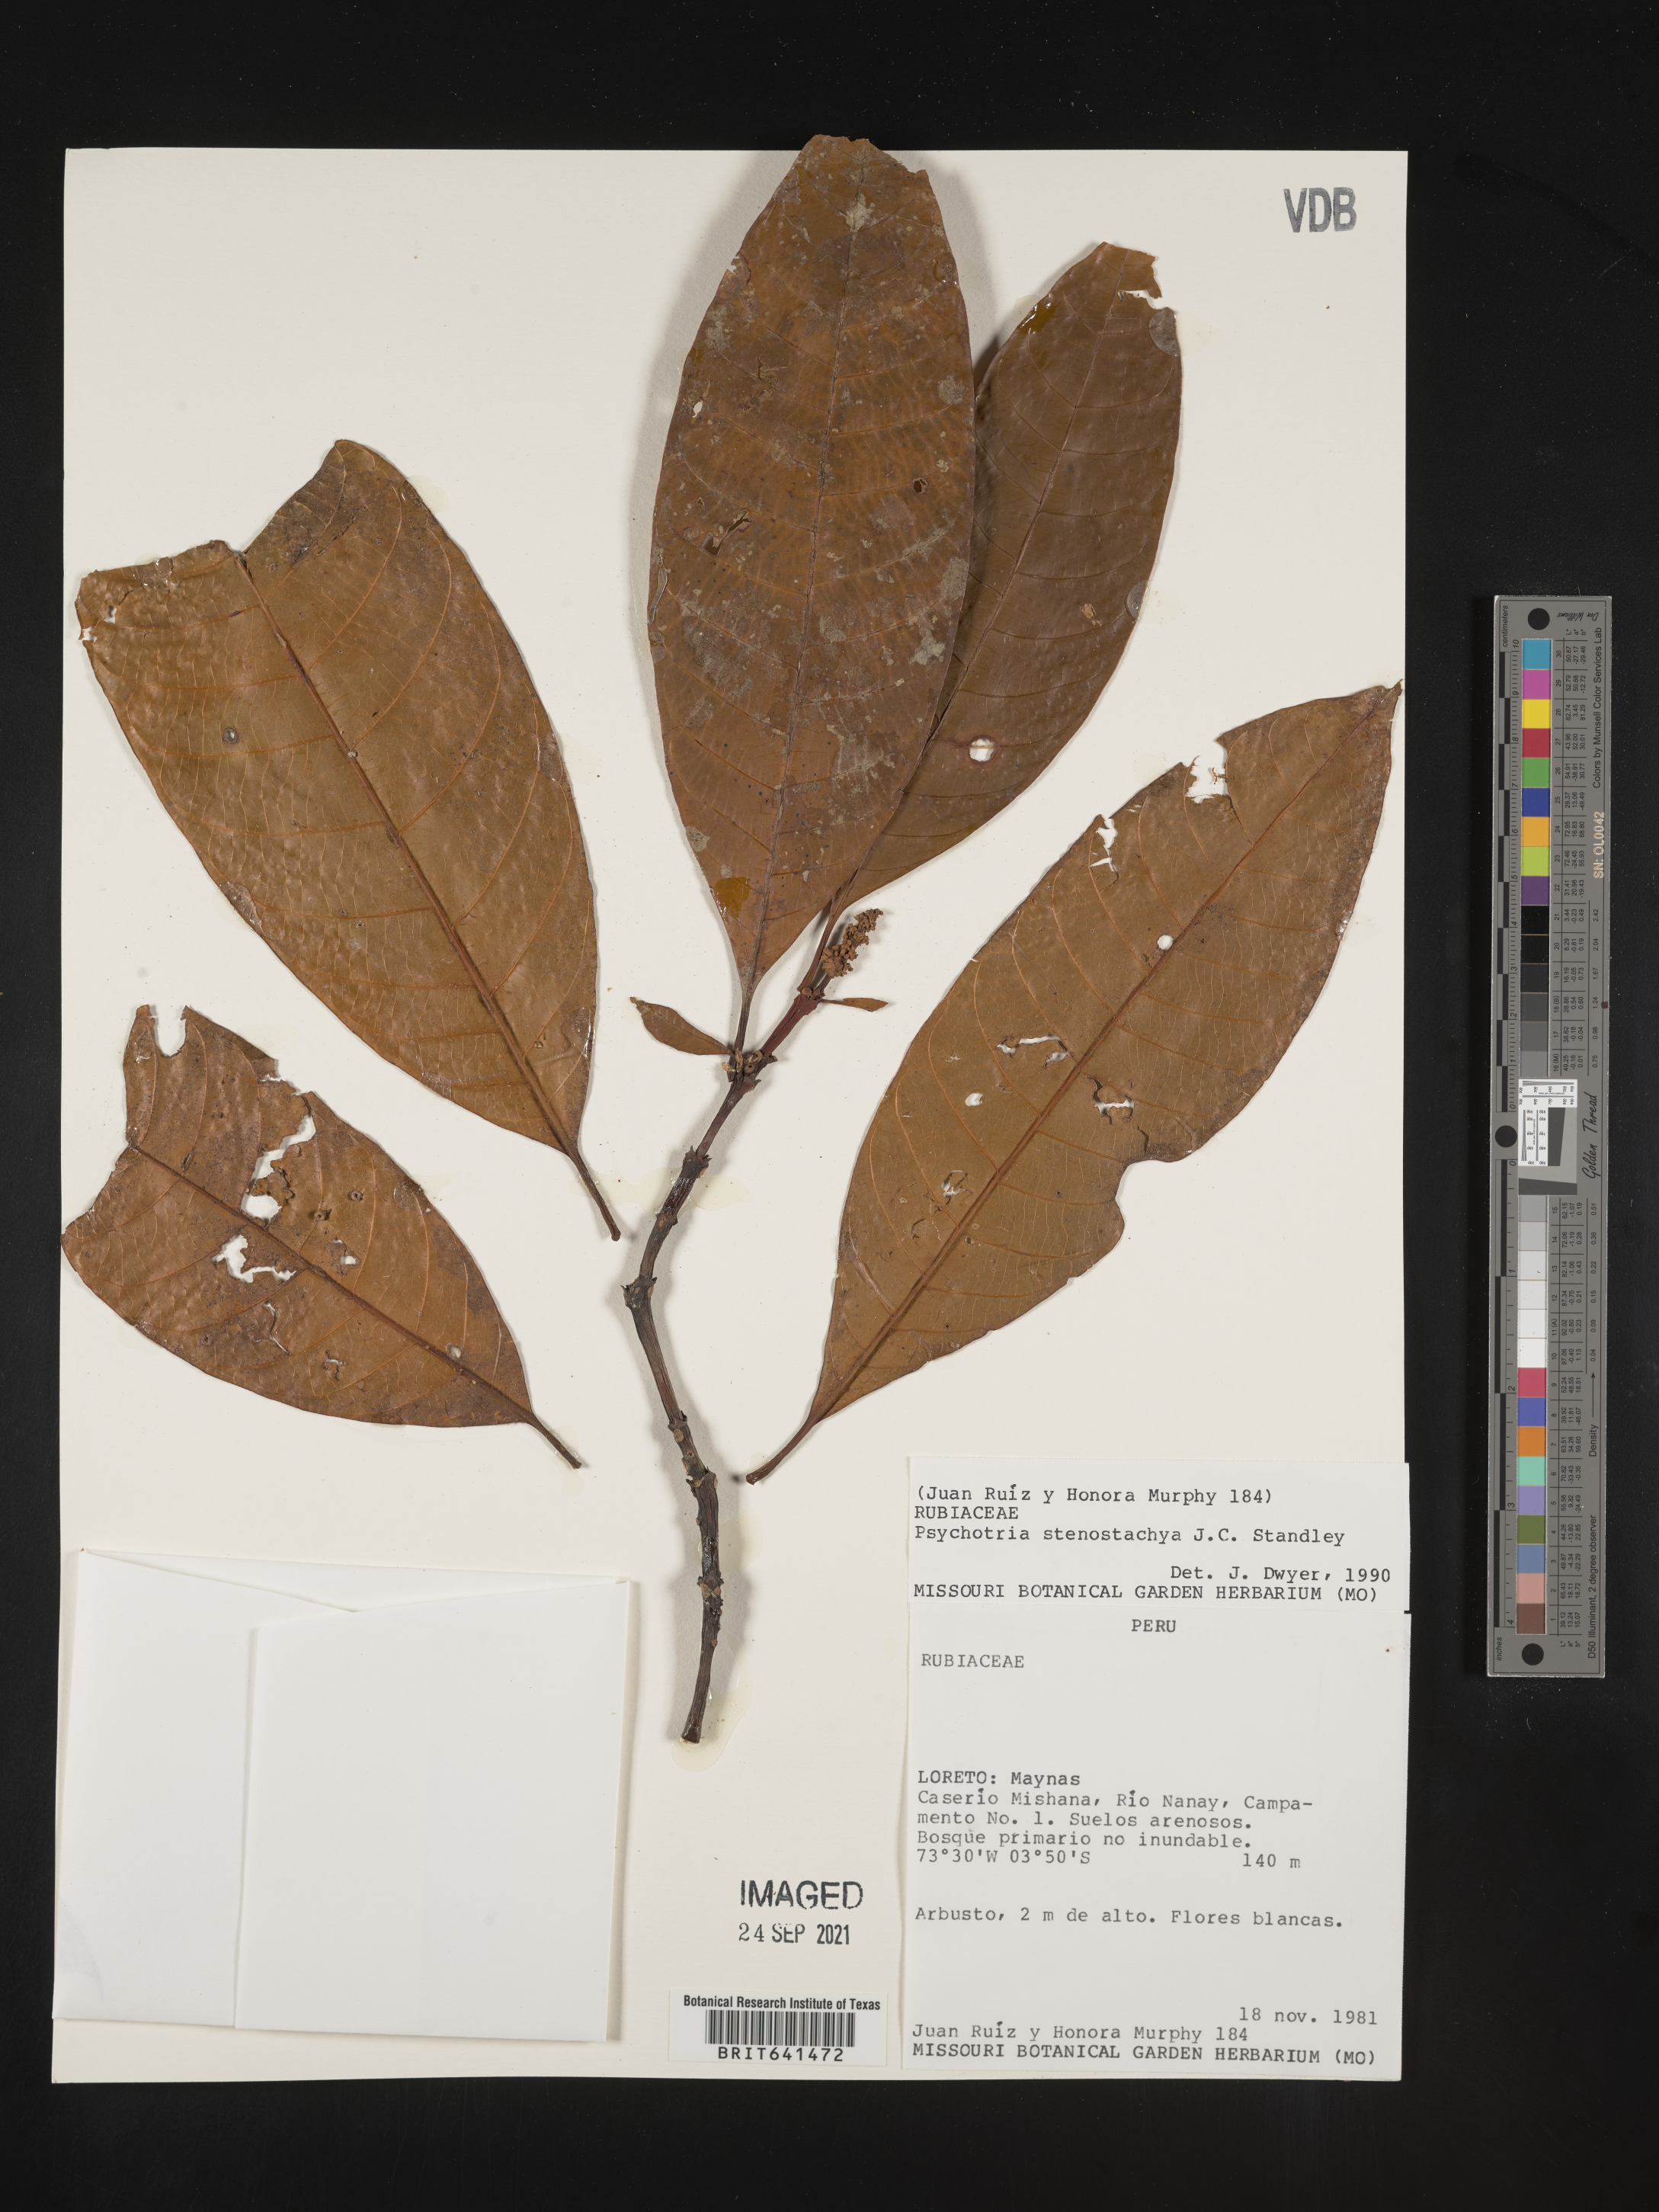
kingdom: Plantae
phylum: Tracheophyta
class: Magnoliopsida
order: Gentianales
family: Rubiaceae
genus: Psychotria
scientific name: Psychotria
